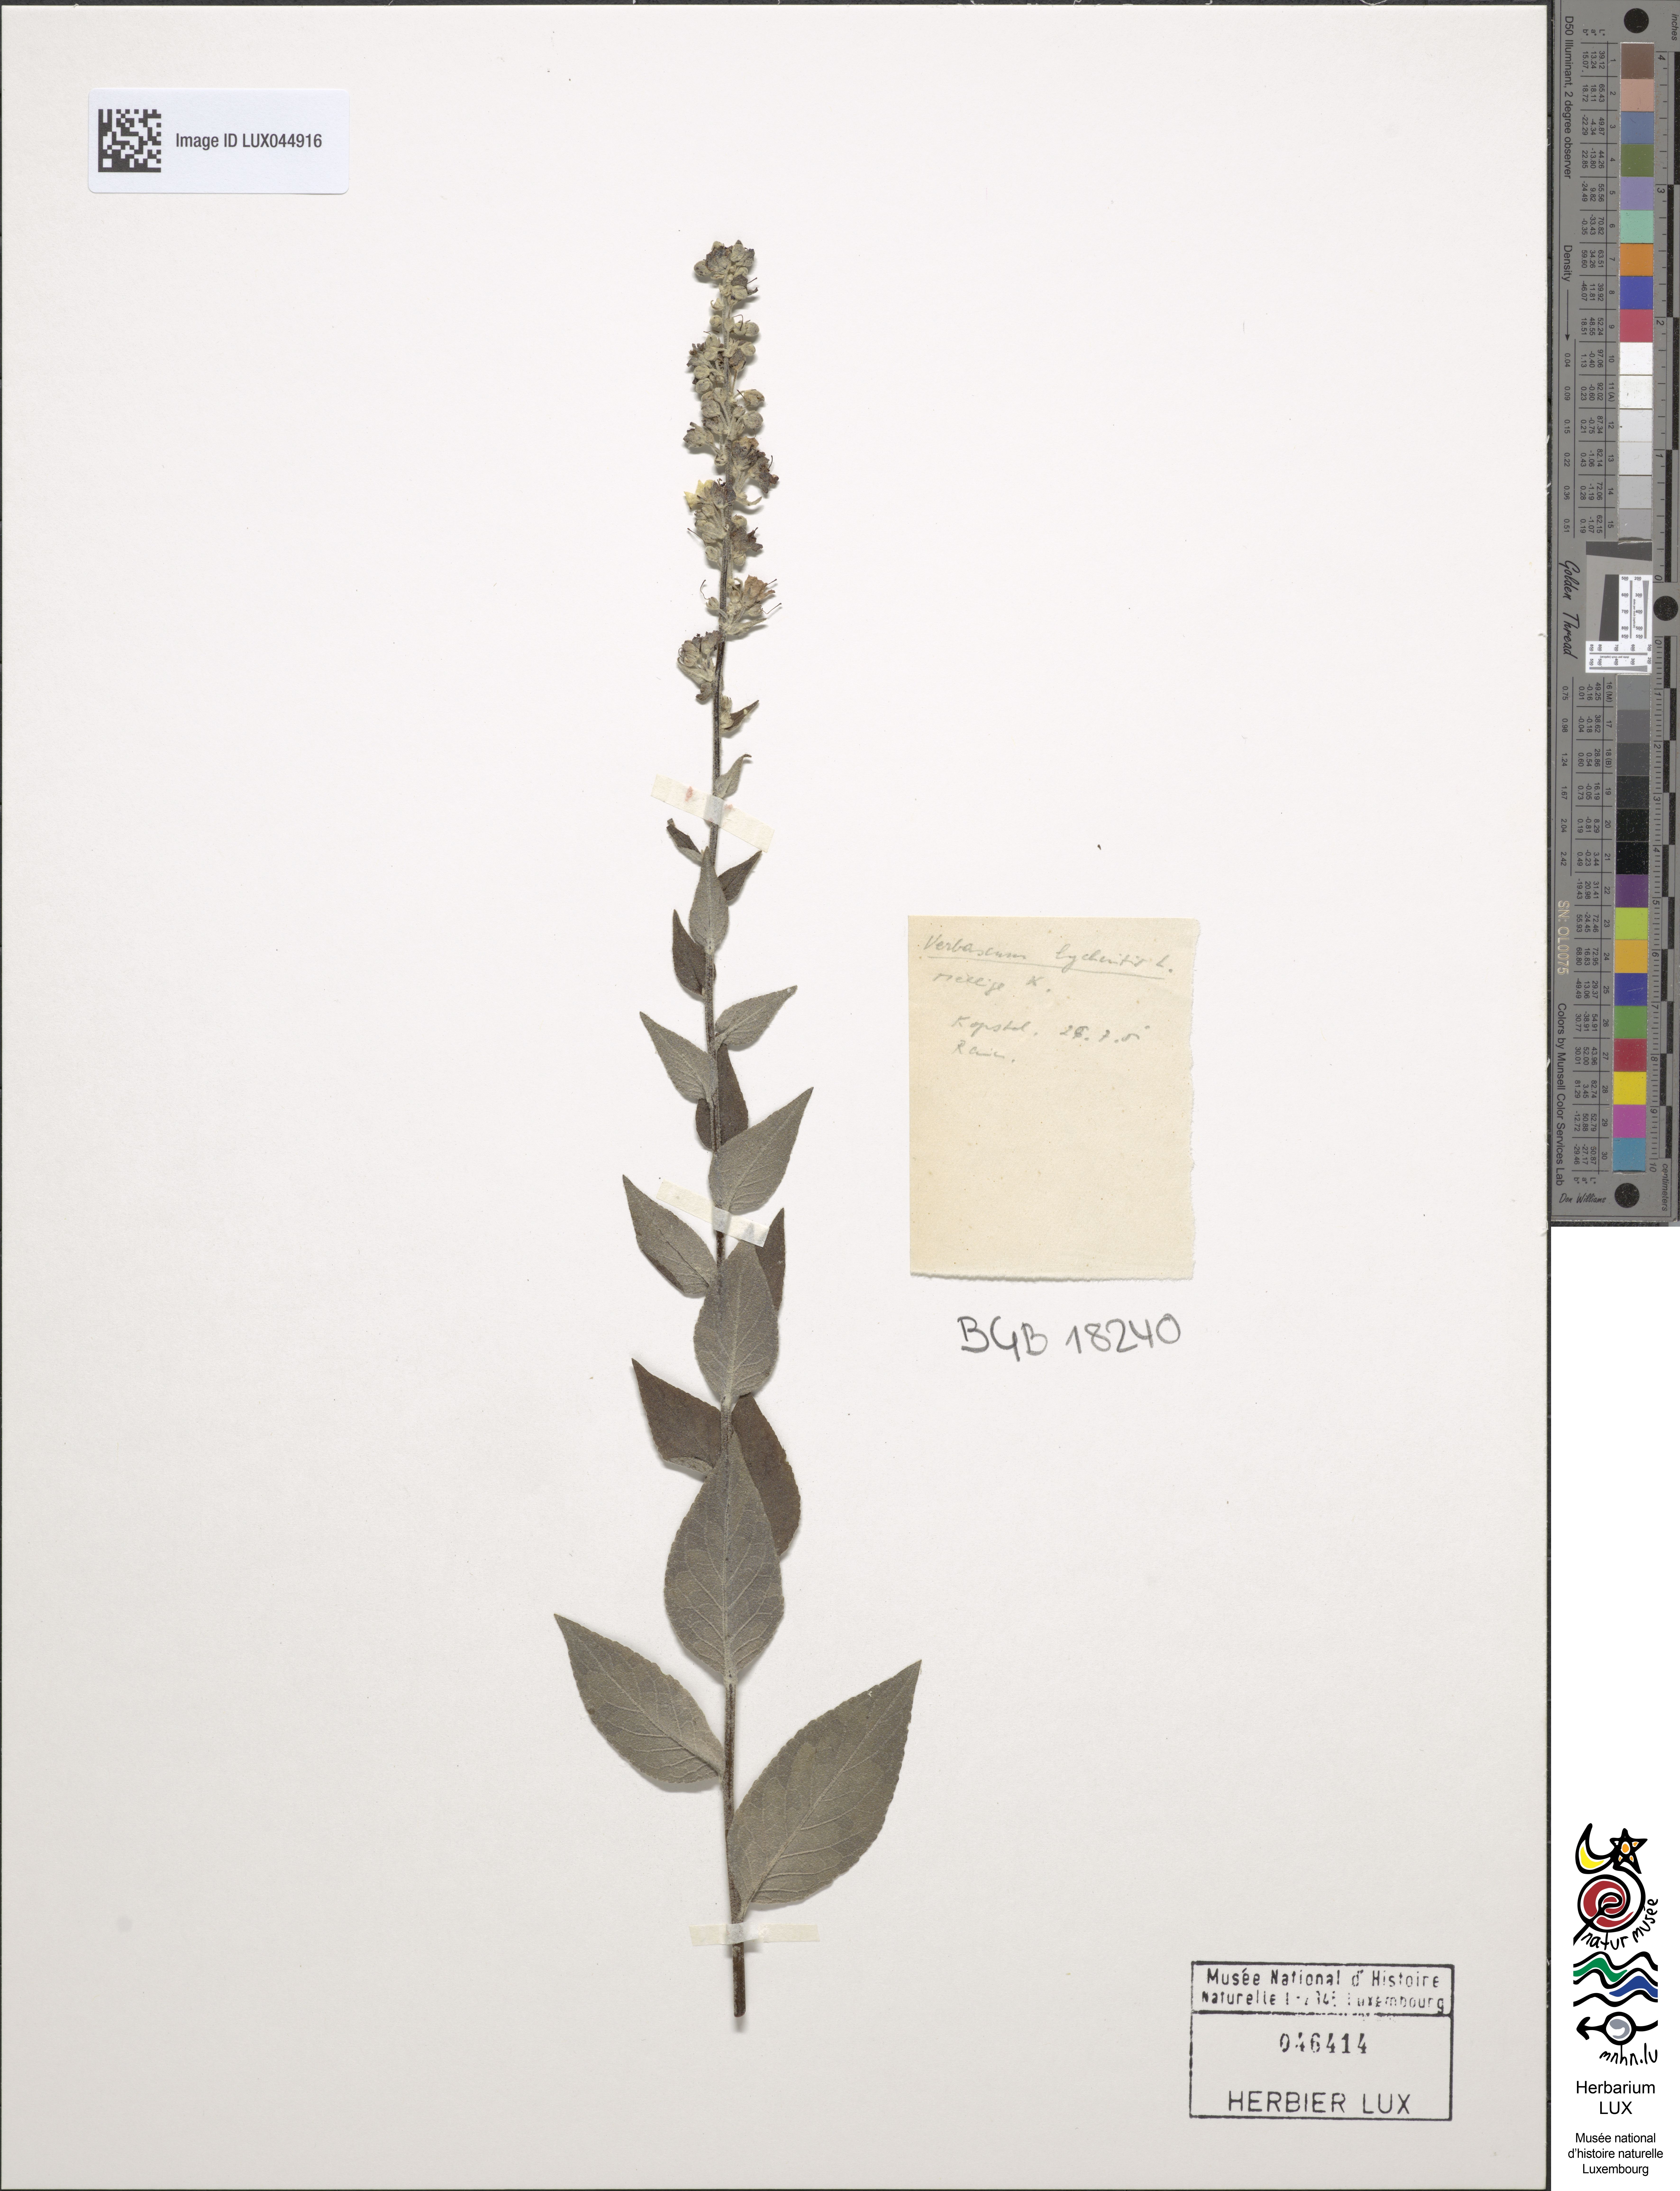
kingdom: Plantae
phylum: Tracheophyta
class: Magnoliopsida
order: Lamiales
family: Scrophulariaceae
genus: Verbascum
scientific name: Verbascum lychnitis
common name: White mullein
